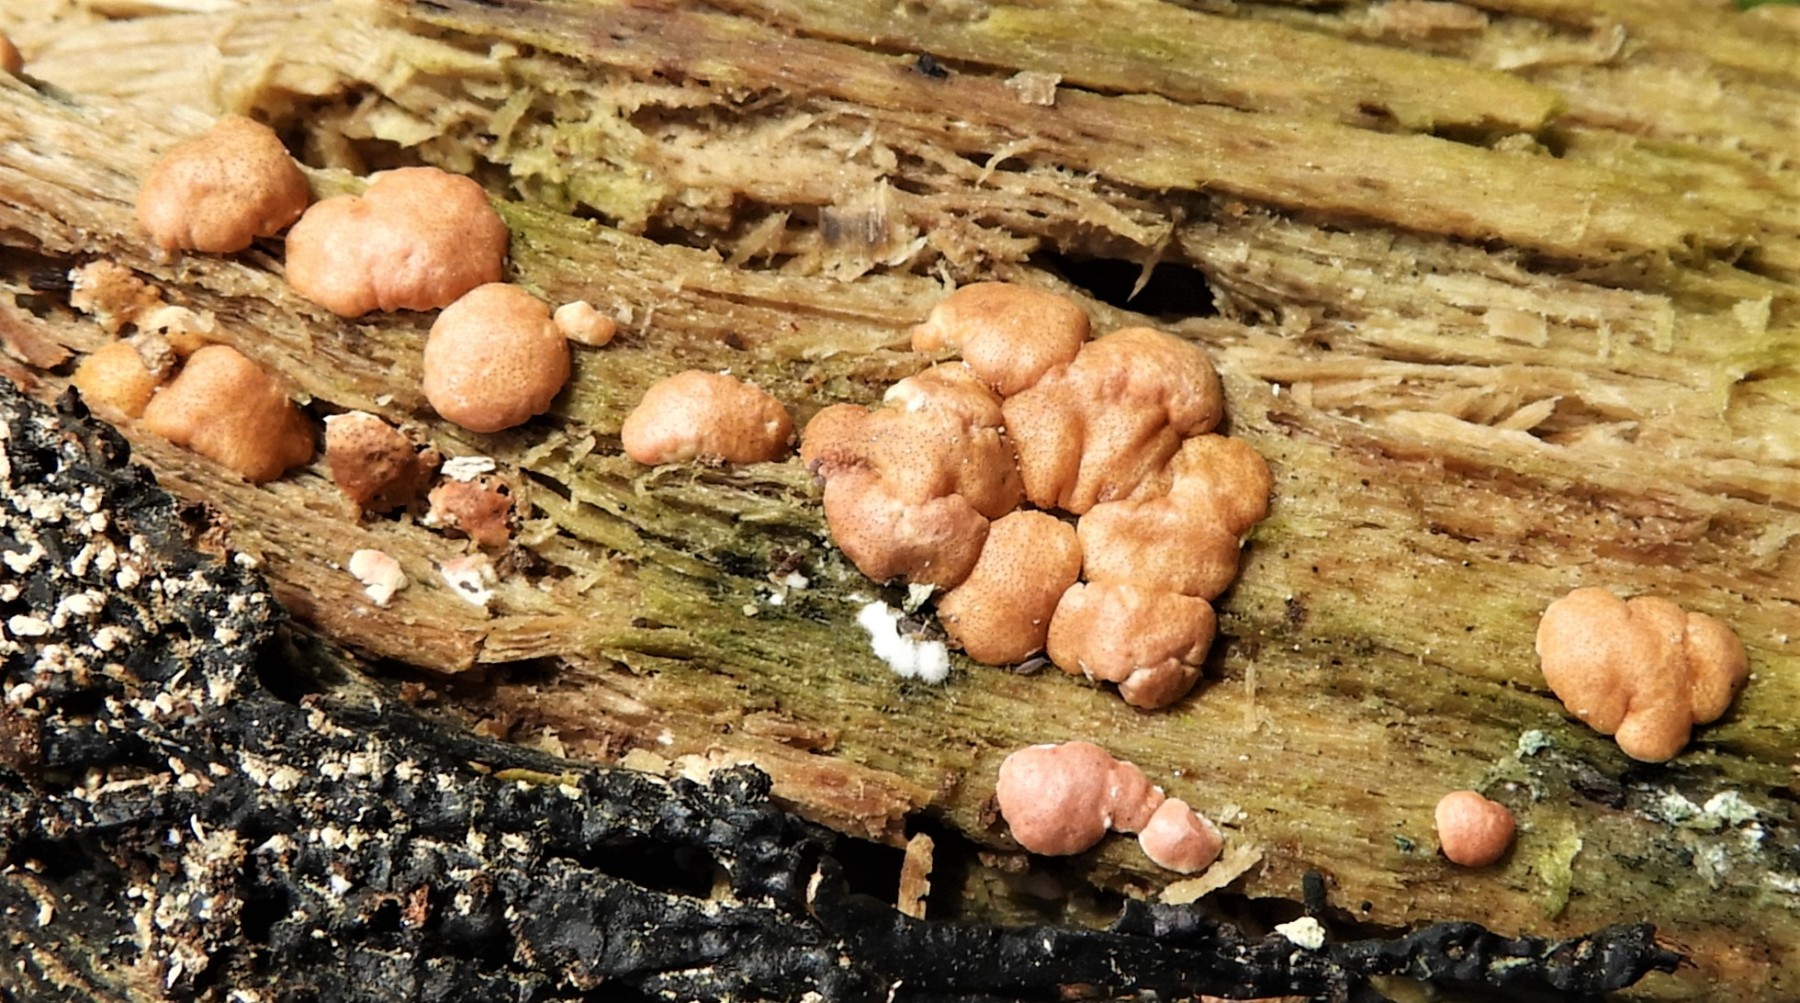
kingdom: Fungi
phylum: Ascomycota
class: Sordariomycetes
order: Hypocreales
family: Hypocreaceae
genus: Trichoderma
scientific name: Trichoderma europaeum
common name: rosabrun kødkerne
